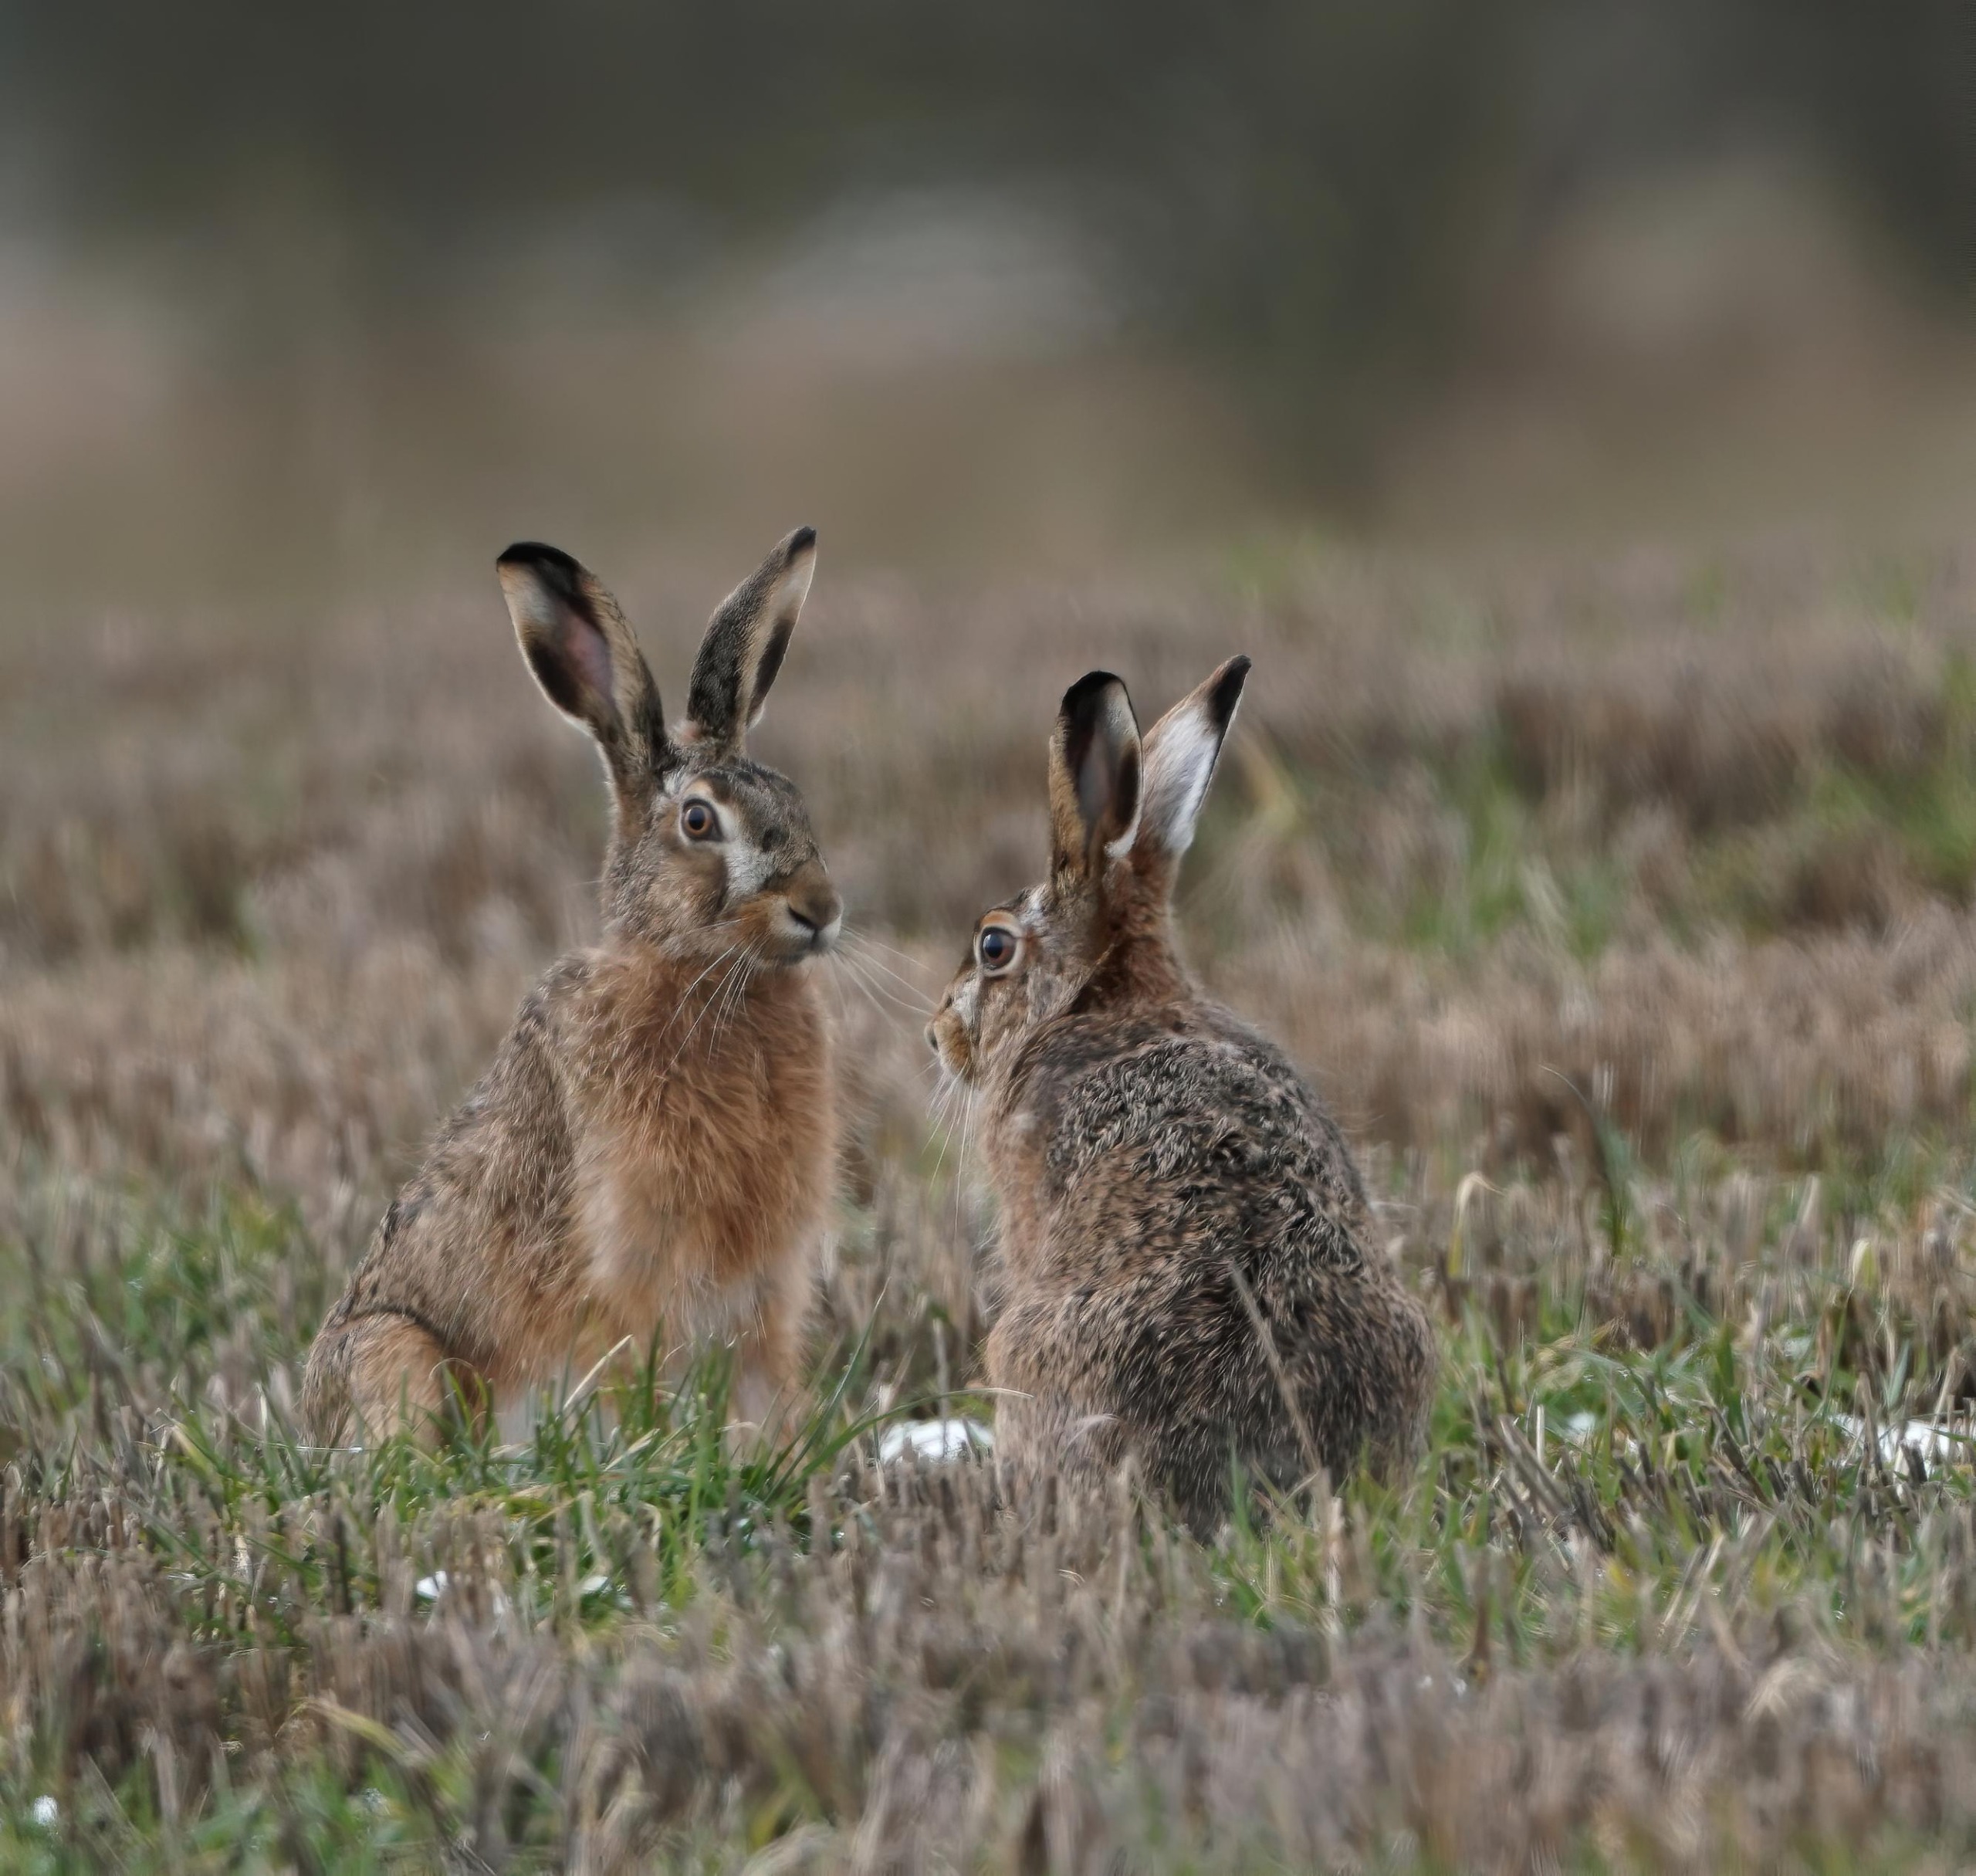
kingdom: Animalia
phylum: Chordata
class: Mammalia
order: Lagomorpha
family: Leporidae
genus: Lepus
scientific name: Lepus europaeus
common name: Hare
